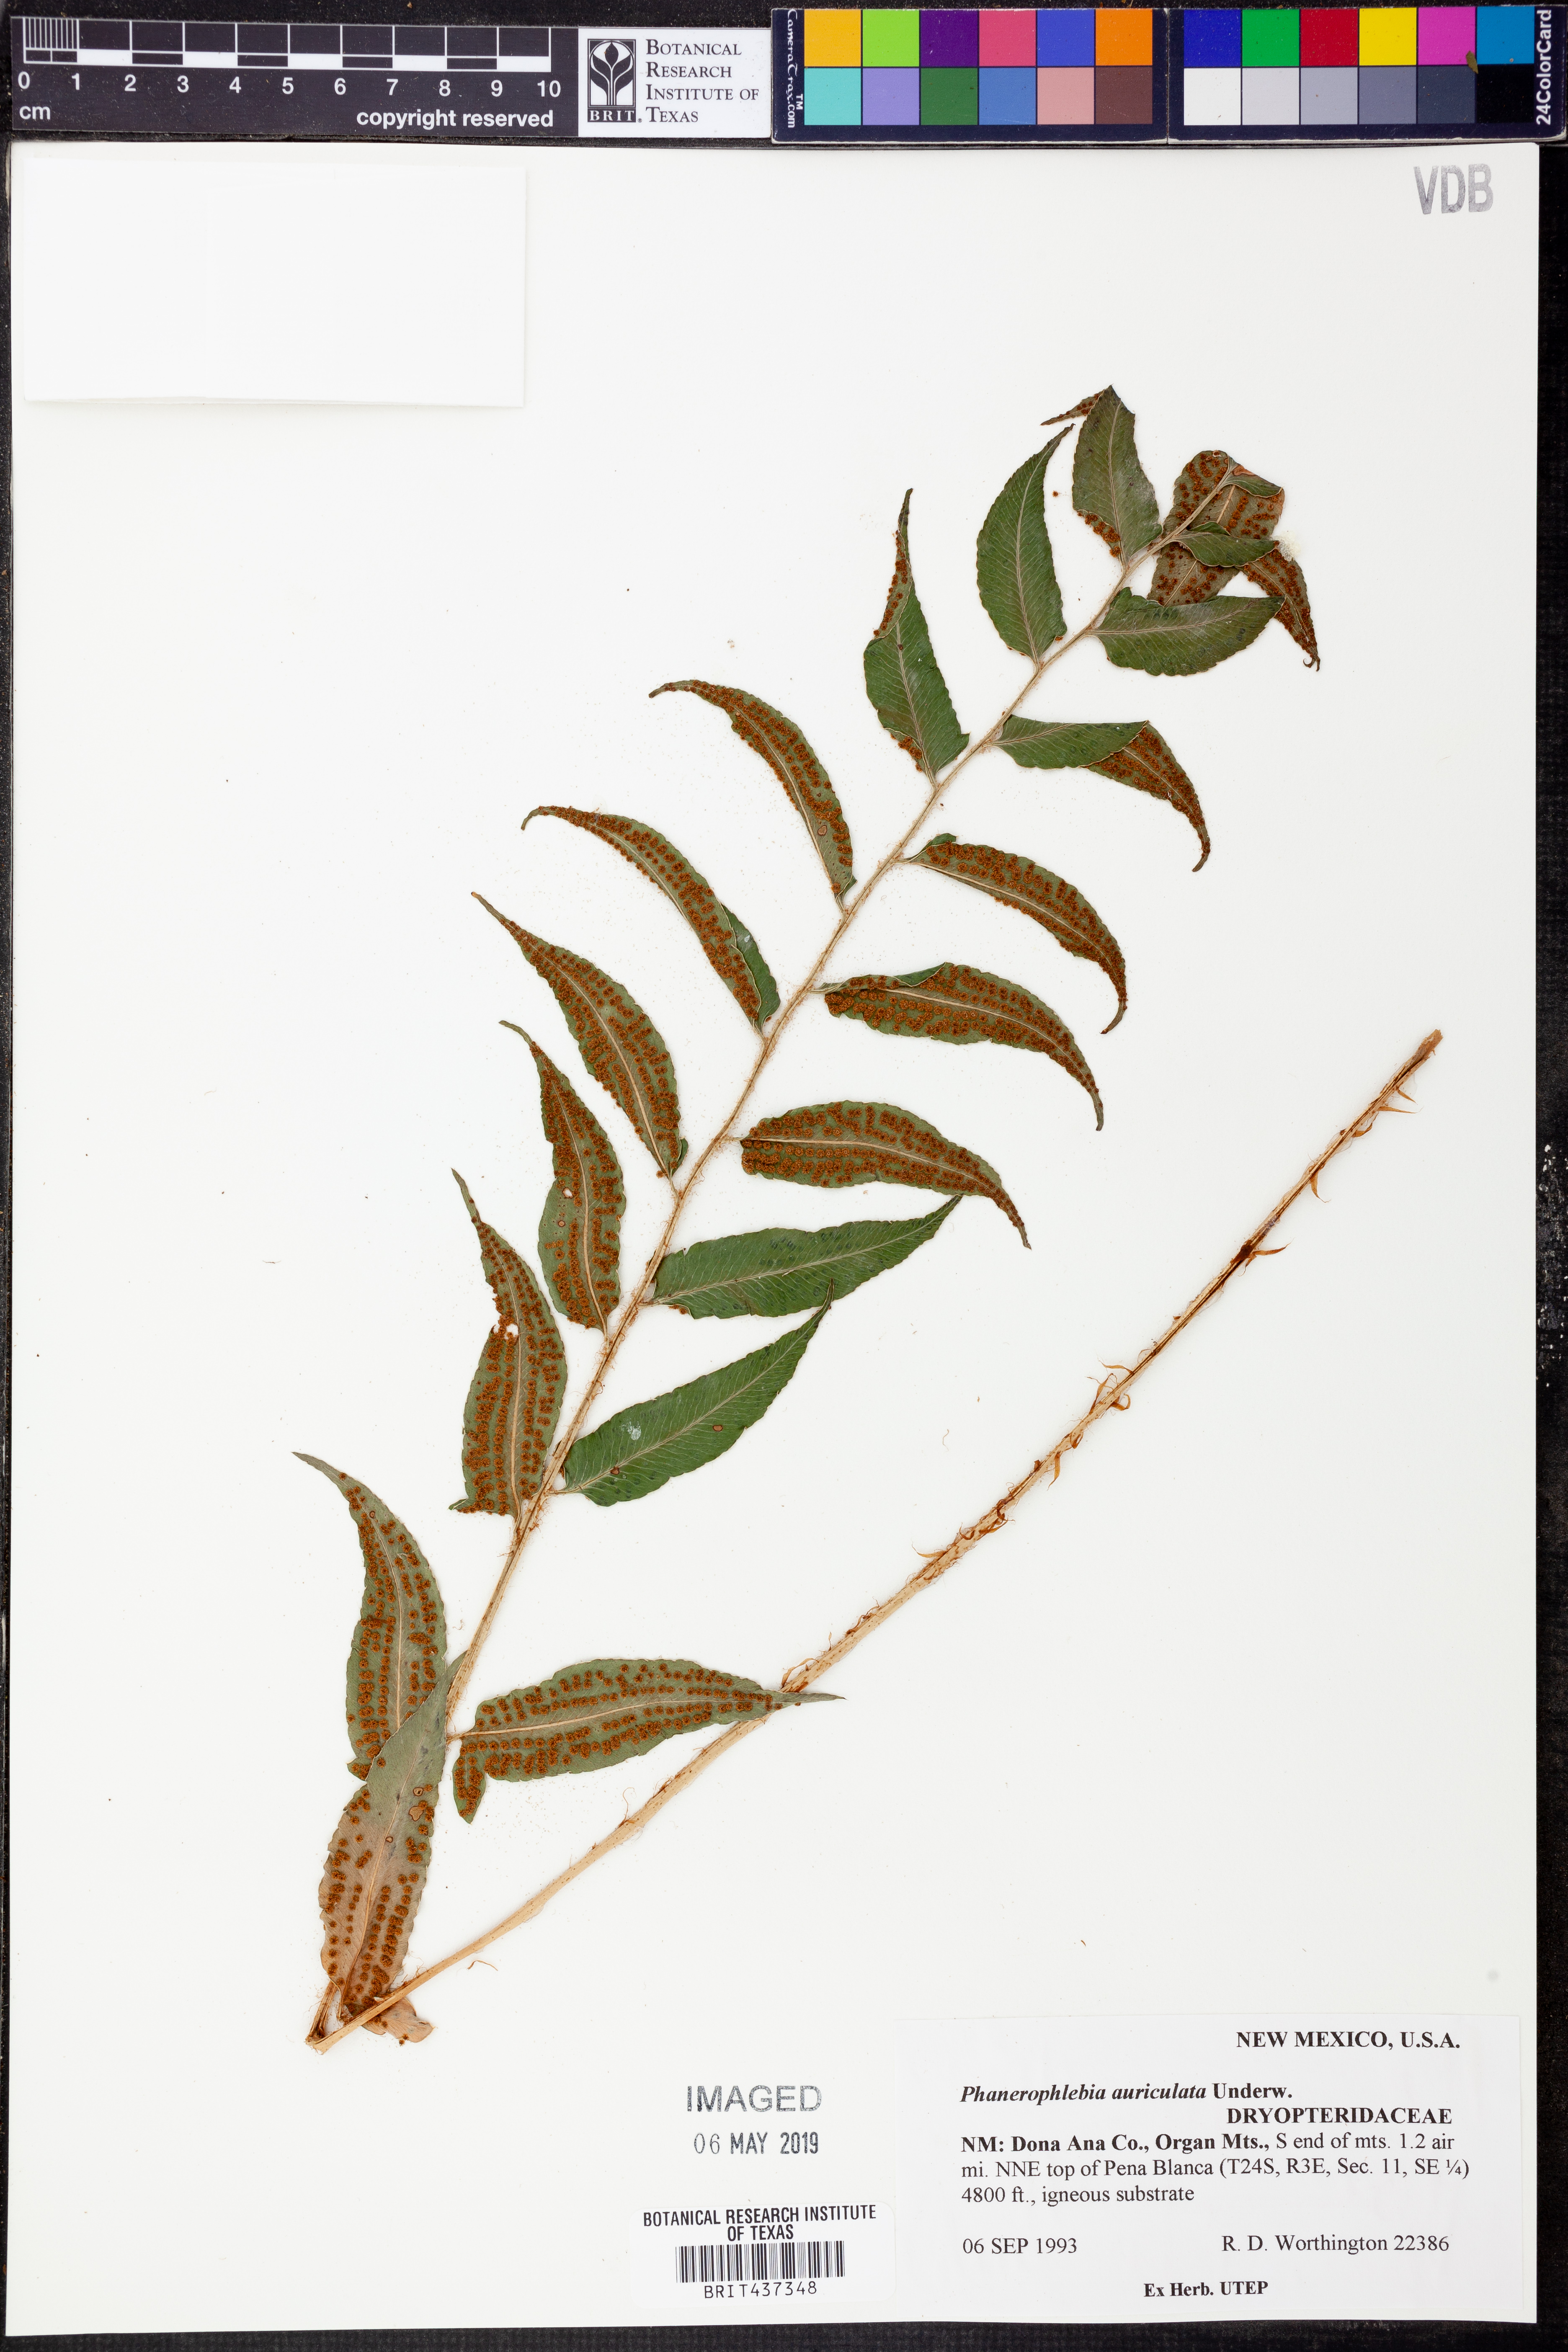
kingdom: Plantae
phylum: Tracheophyta
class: Polypodiopsida
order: Polypodiales
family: Dryopteridaceae
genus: Phanerophlebia
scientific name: Phanerophlebia auriculata
